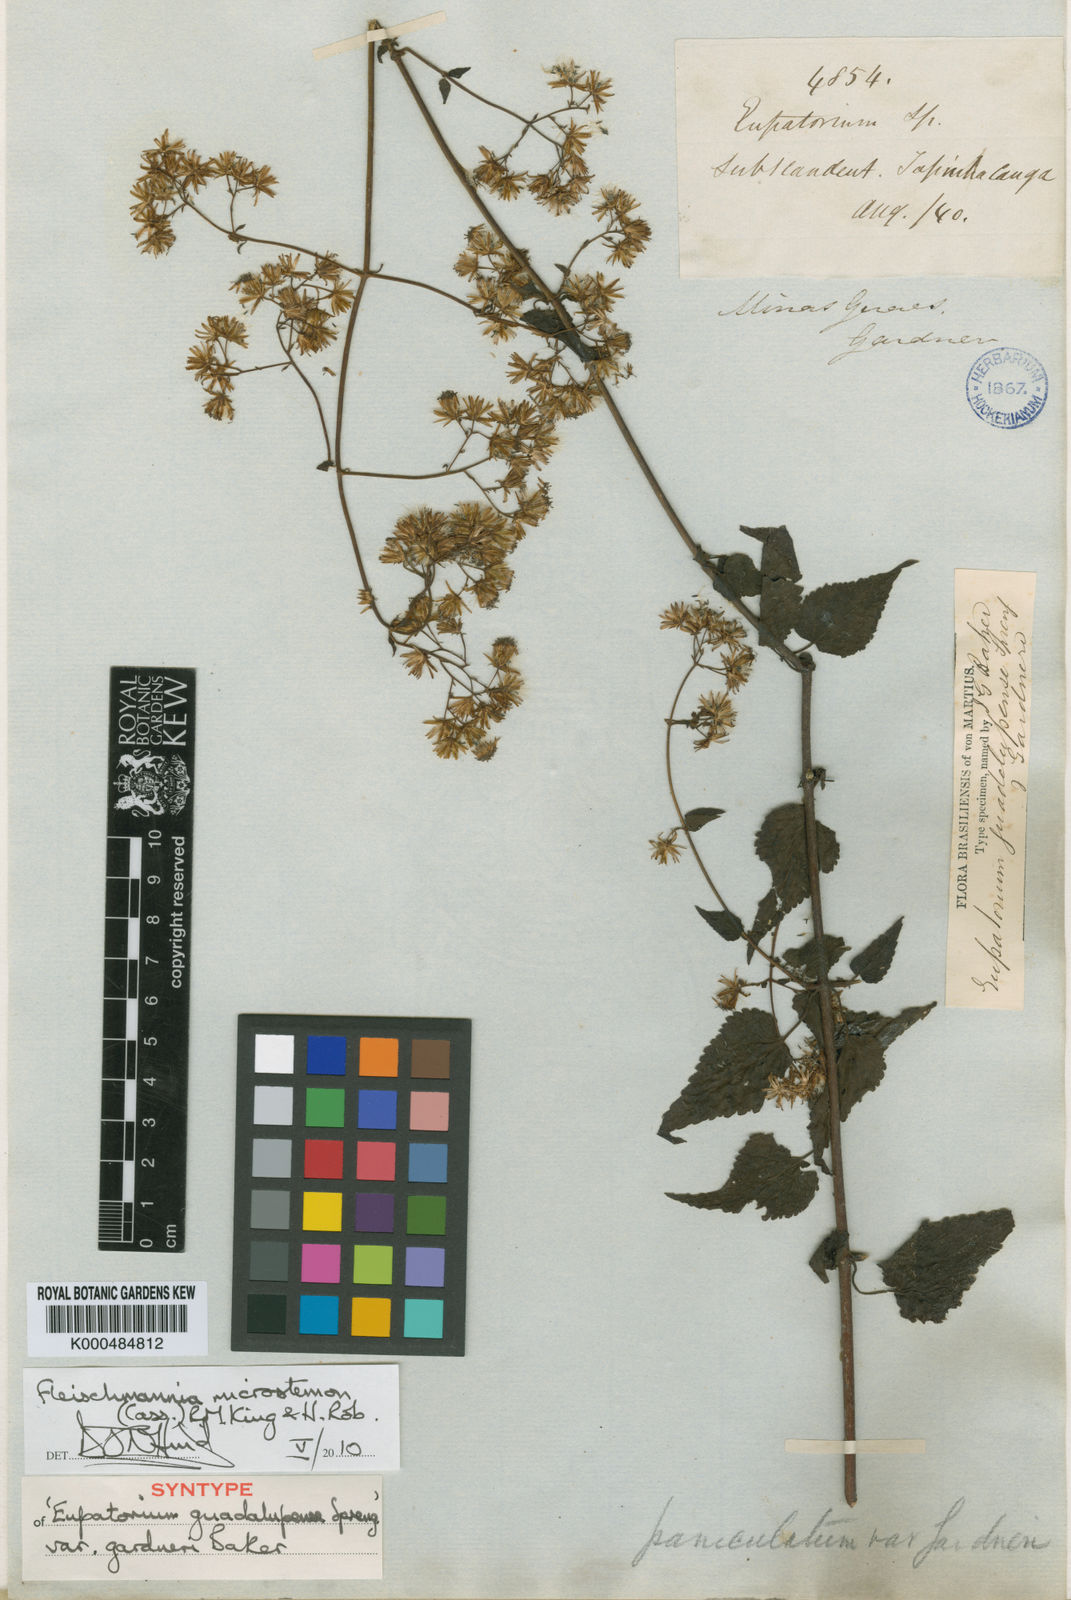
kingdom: Plantae
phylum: Tracheophyta
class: Magnoliopsida
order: Asterales
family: Asteraceae
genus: Fleischmannia
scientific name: Fleischmannia microstemon
